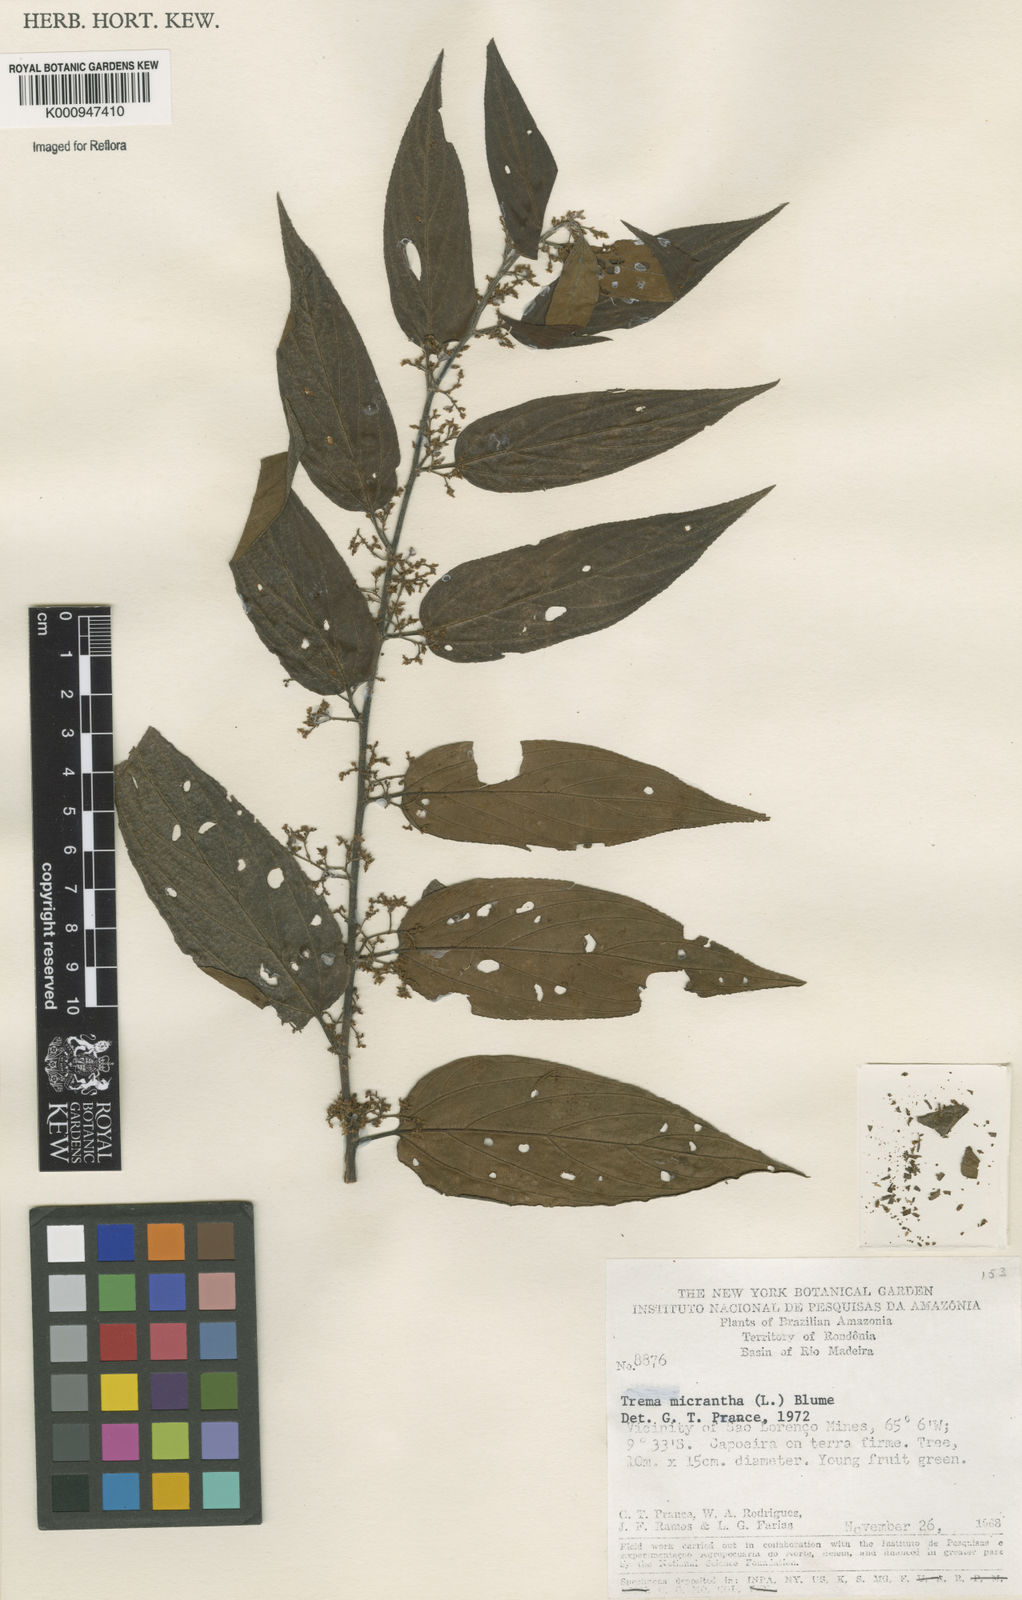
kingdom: Plantae
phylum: Tracheophyta
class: Magnoliopsida
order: Rosales
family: Cannabaceae
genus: Trema
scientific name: Trema micranthum
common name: Jamaican nettletree
